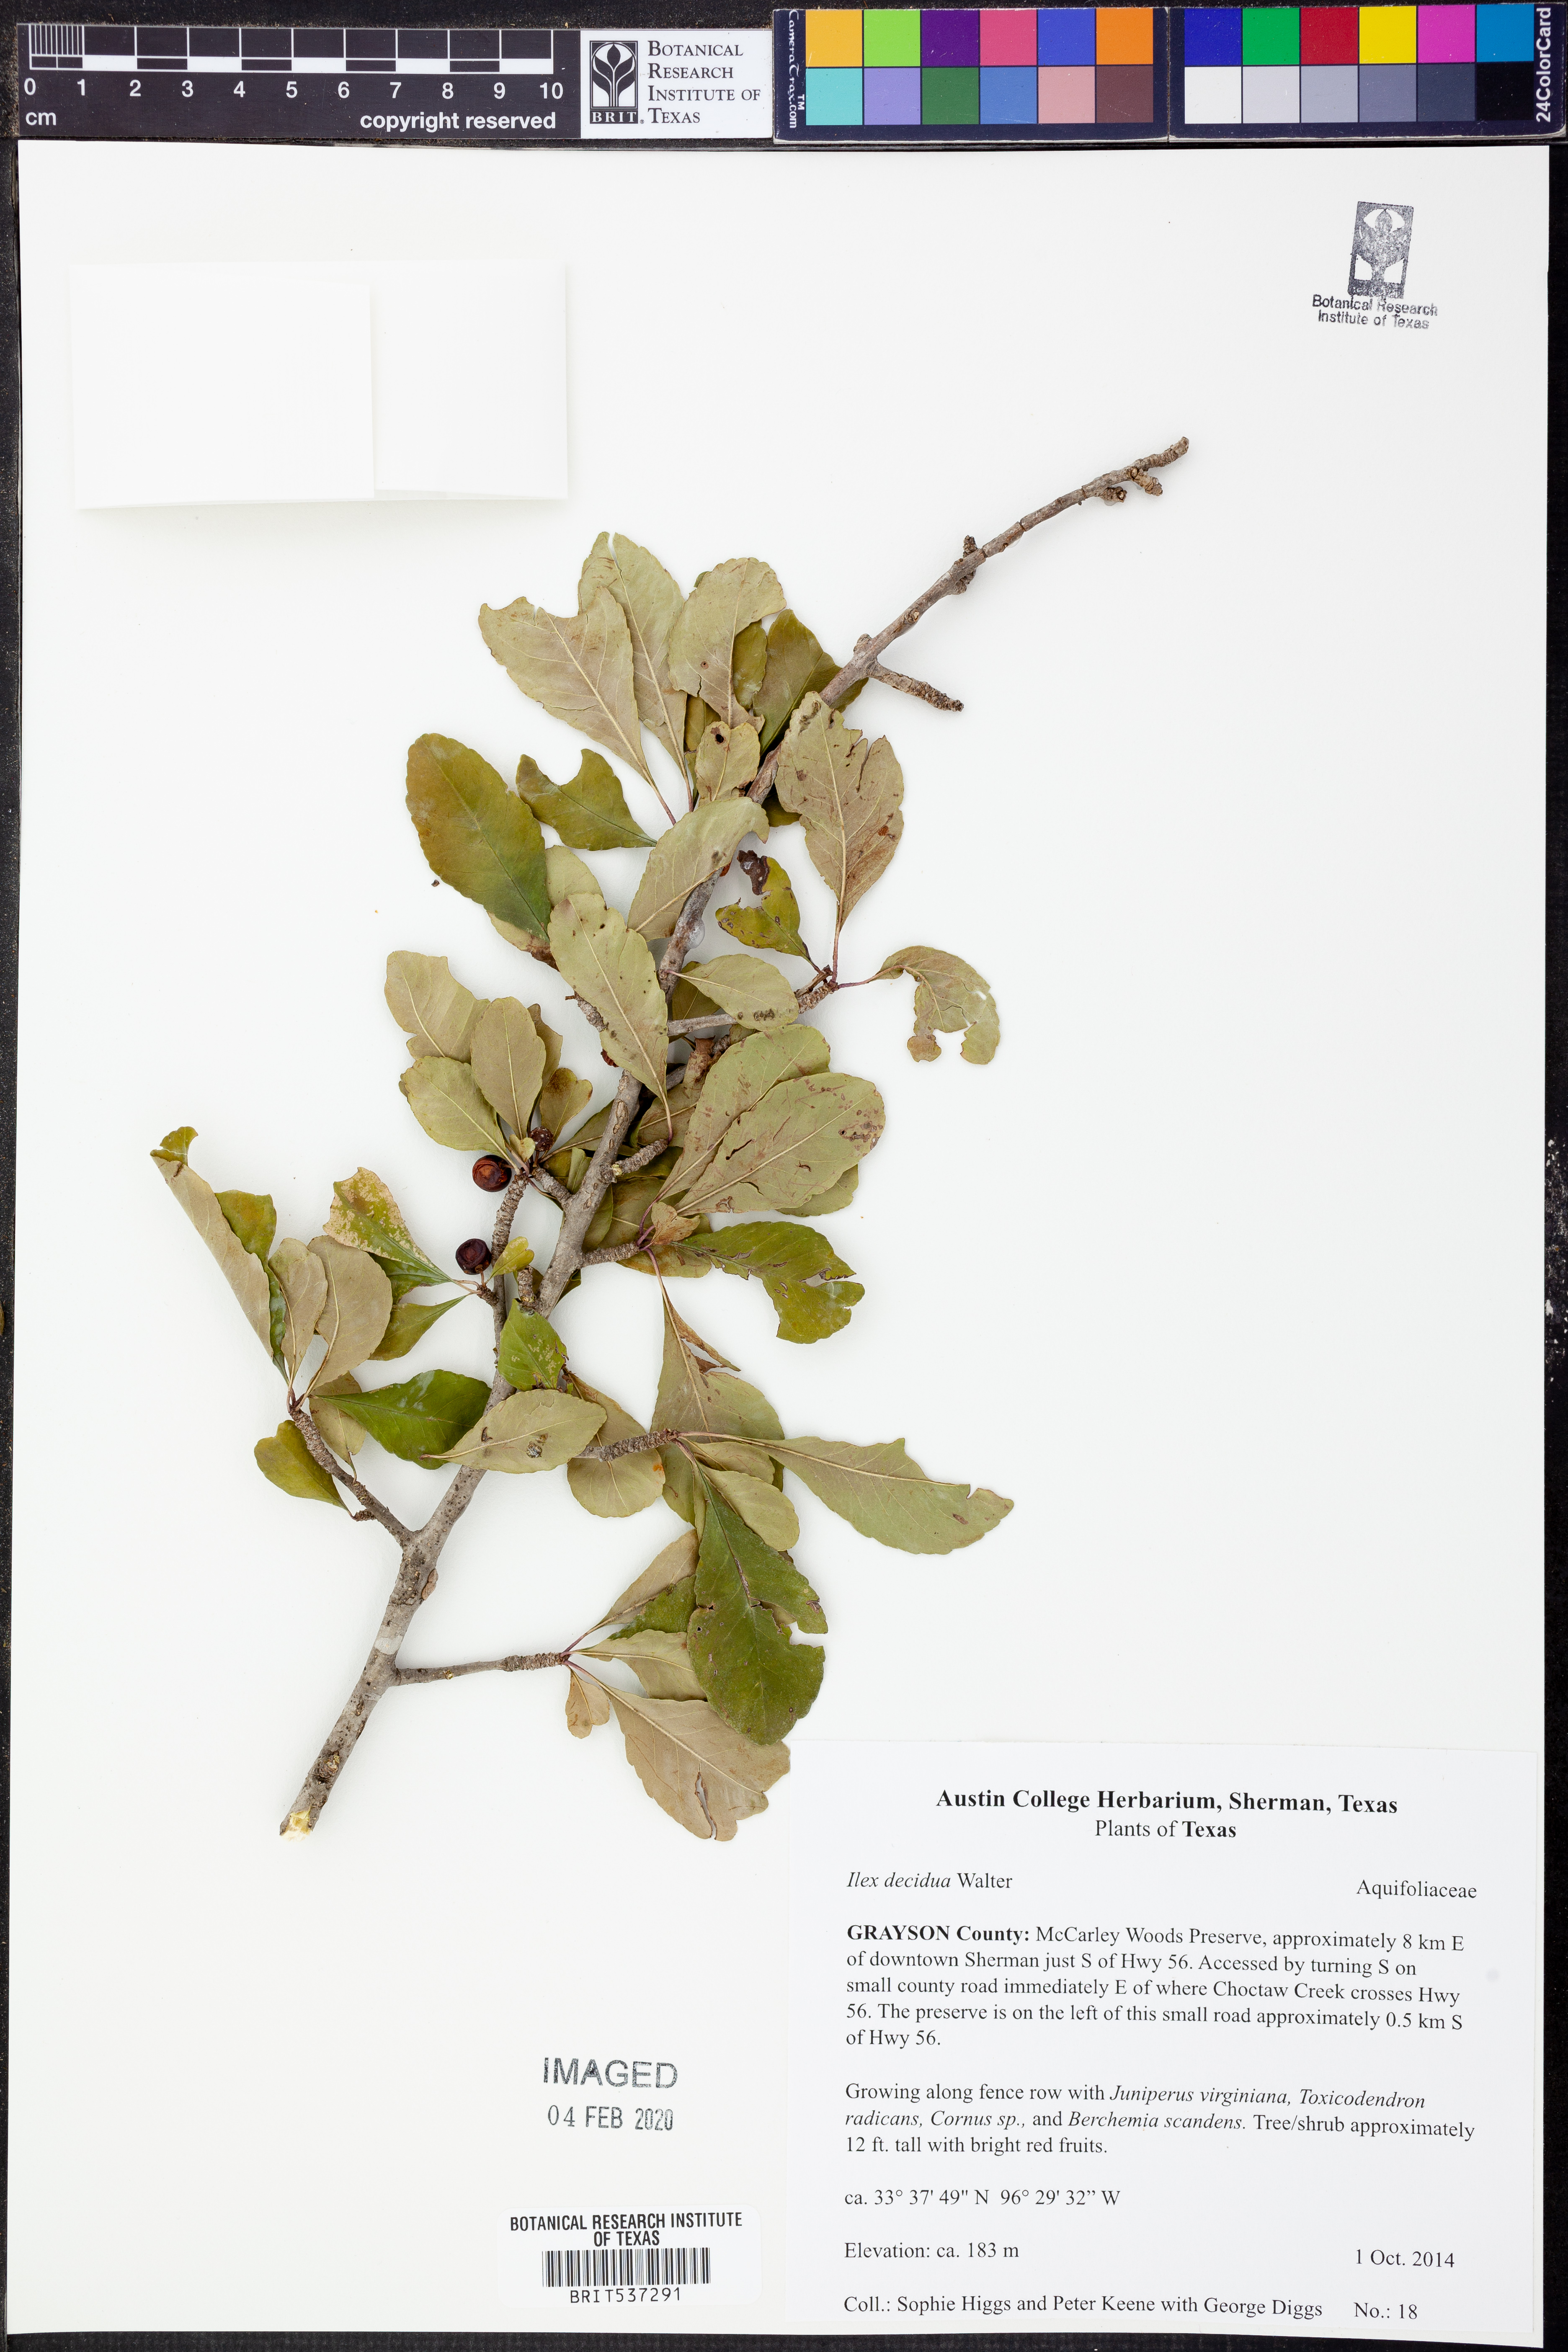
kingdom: Plantae
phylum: Tracheophyta
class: Magnoliopsida
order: Aquifoliales
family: Aquifoliaceae
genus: Ilex
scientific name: Ilex decidua
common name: Possum-haw
